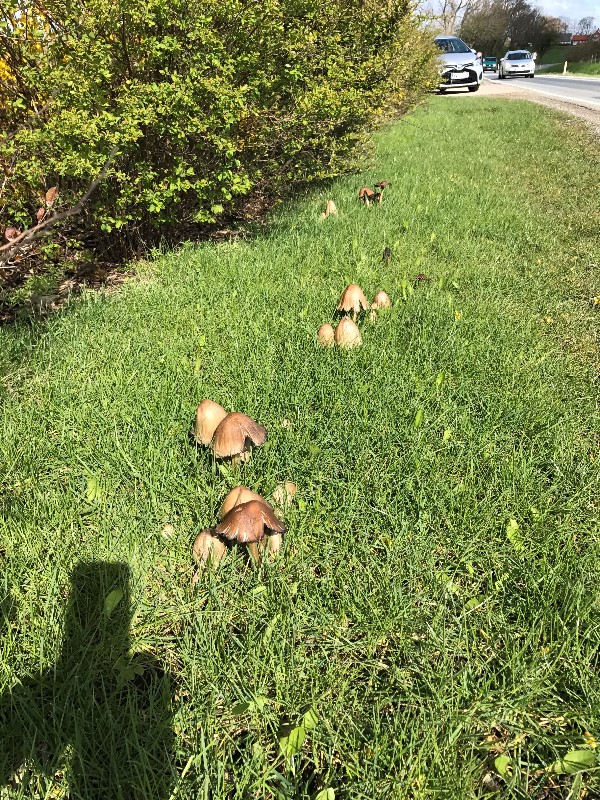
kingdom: Fungi
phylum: Basidiomycota
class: Agaricomycetes
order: Agaricales
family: Psathyrellaceae
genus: Coprinopsis
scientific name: Coprinopsis
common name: blækhat
